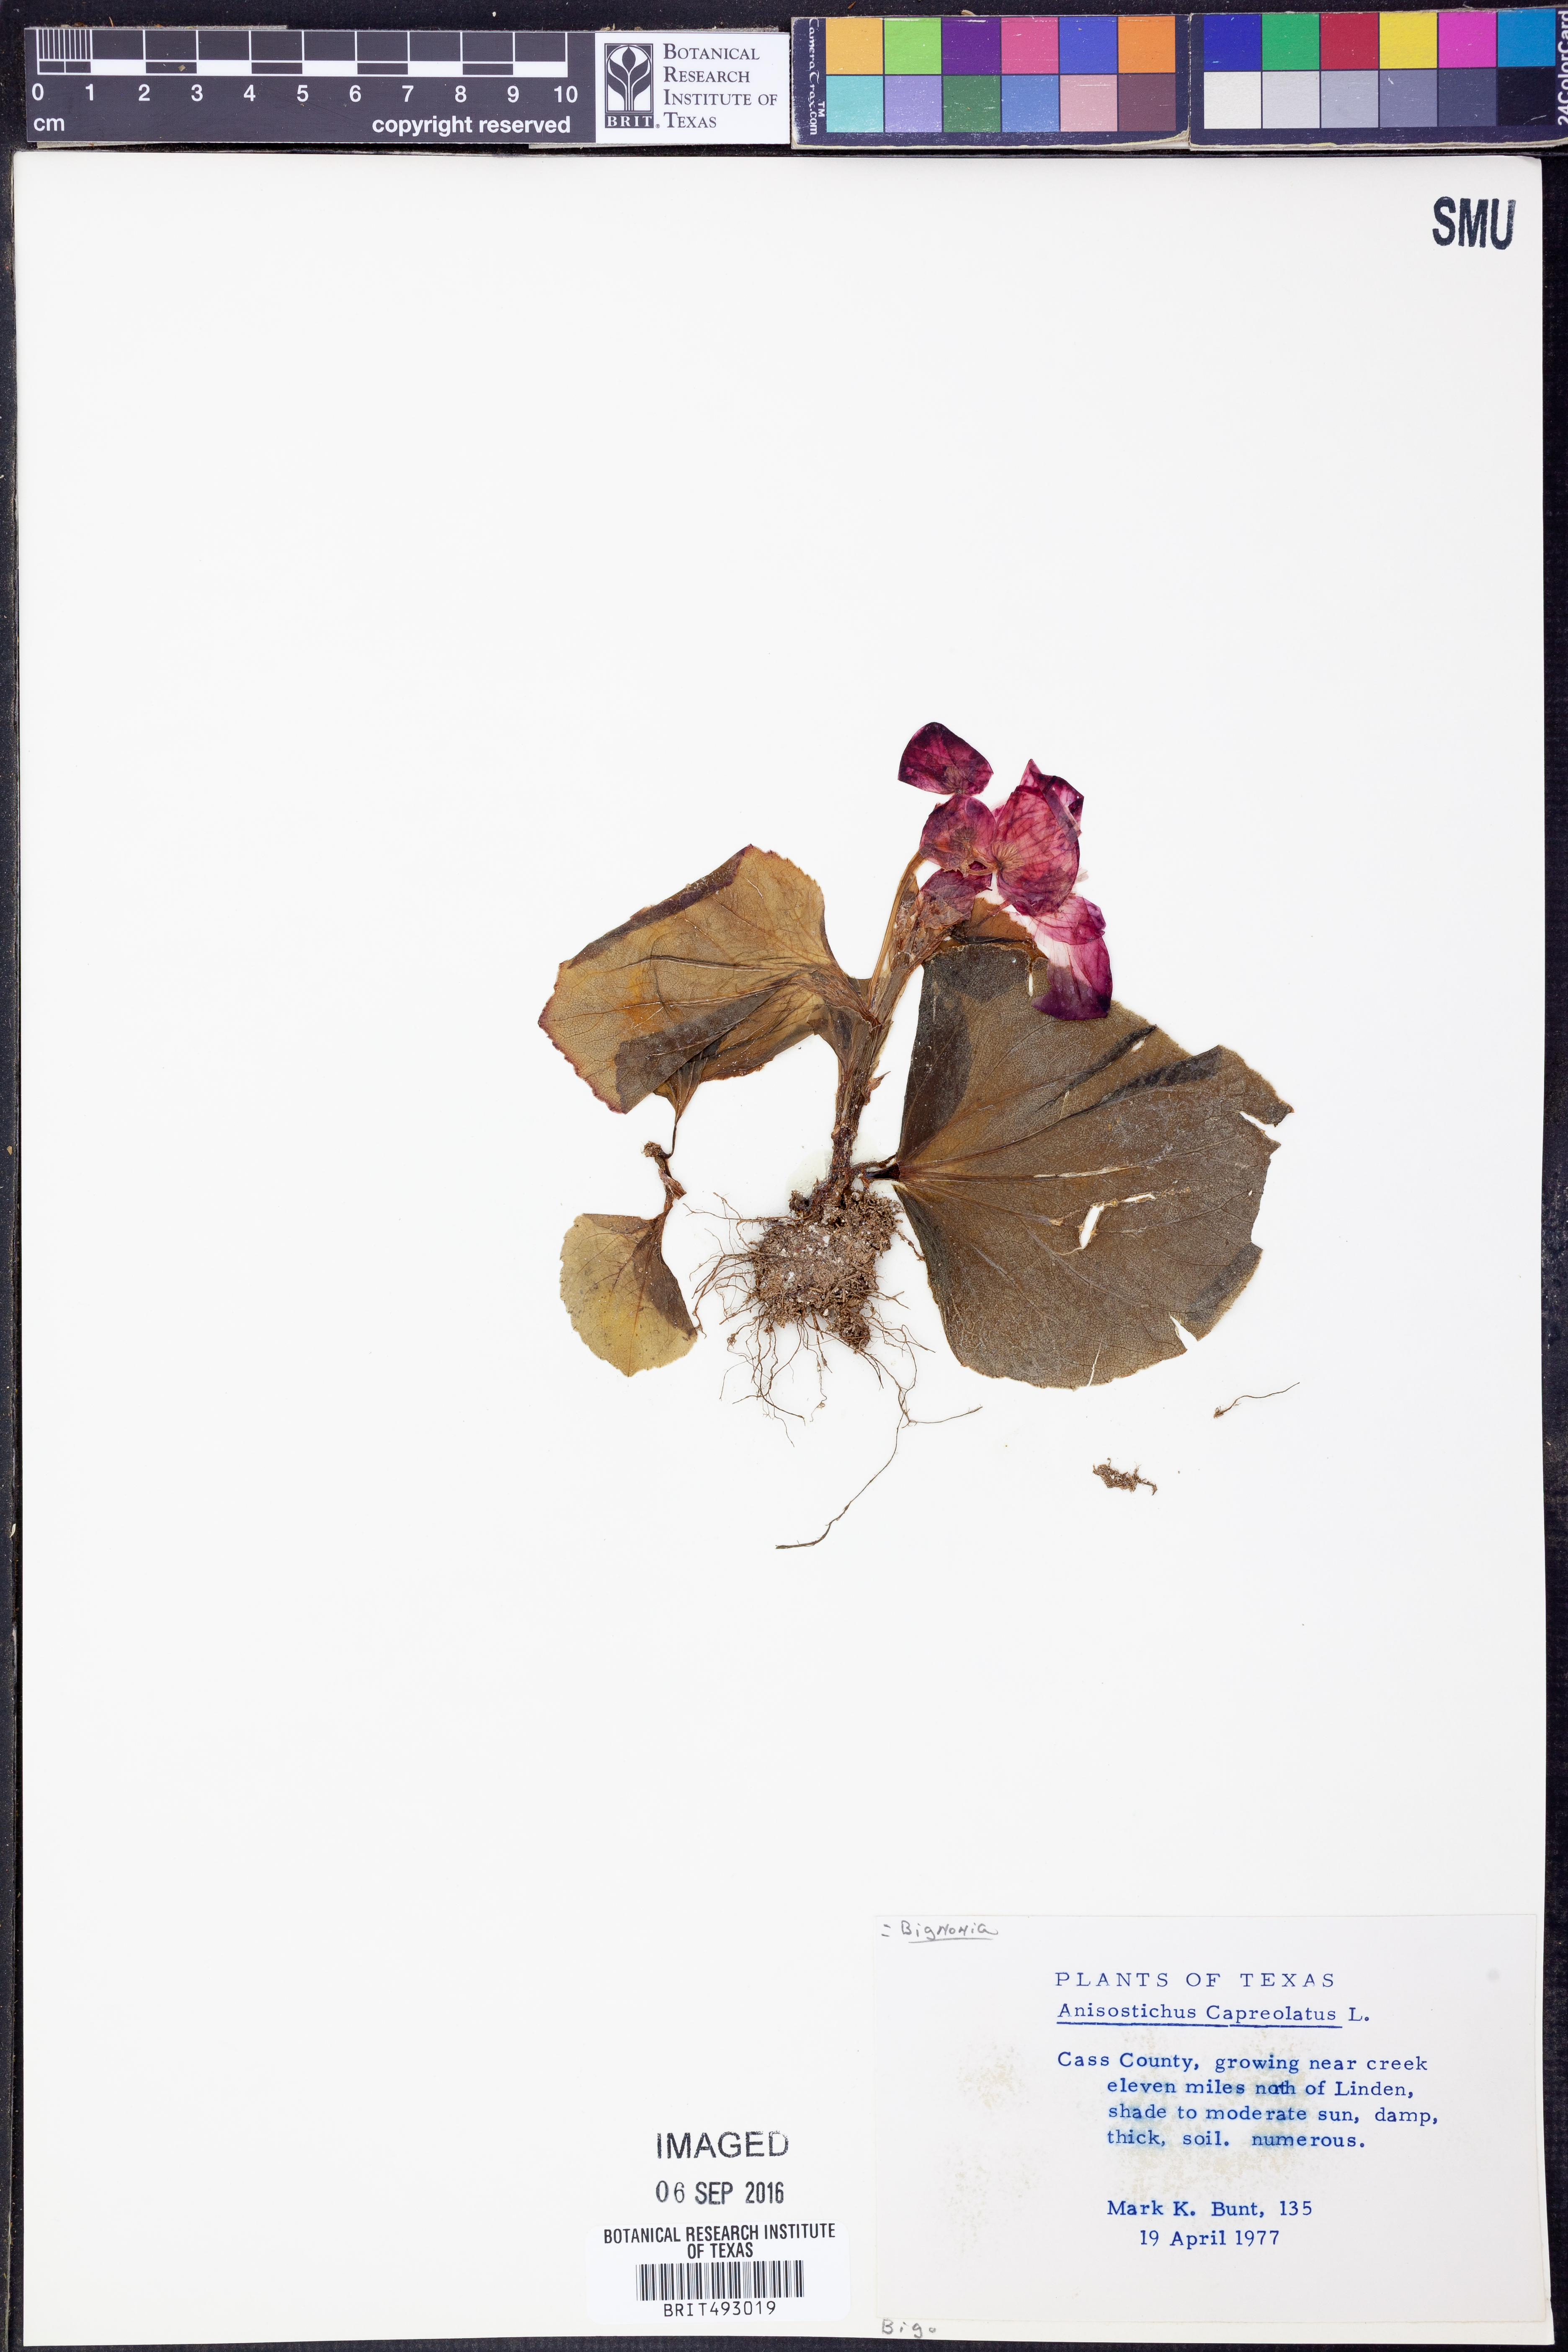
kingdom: Plantae
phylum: Tracheophyta
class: Magnoliopsida
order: Lamiales
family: Bignoniaceae
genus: Bignonia
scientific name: Bignonia capreolata
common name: Crossvine
